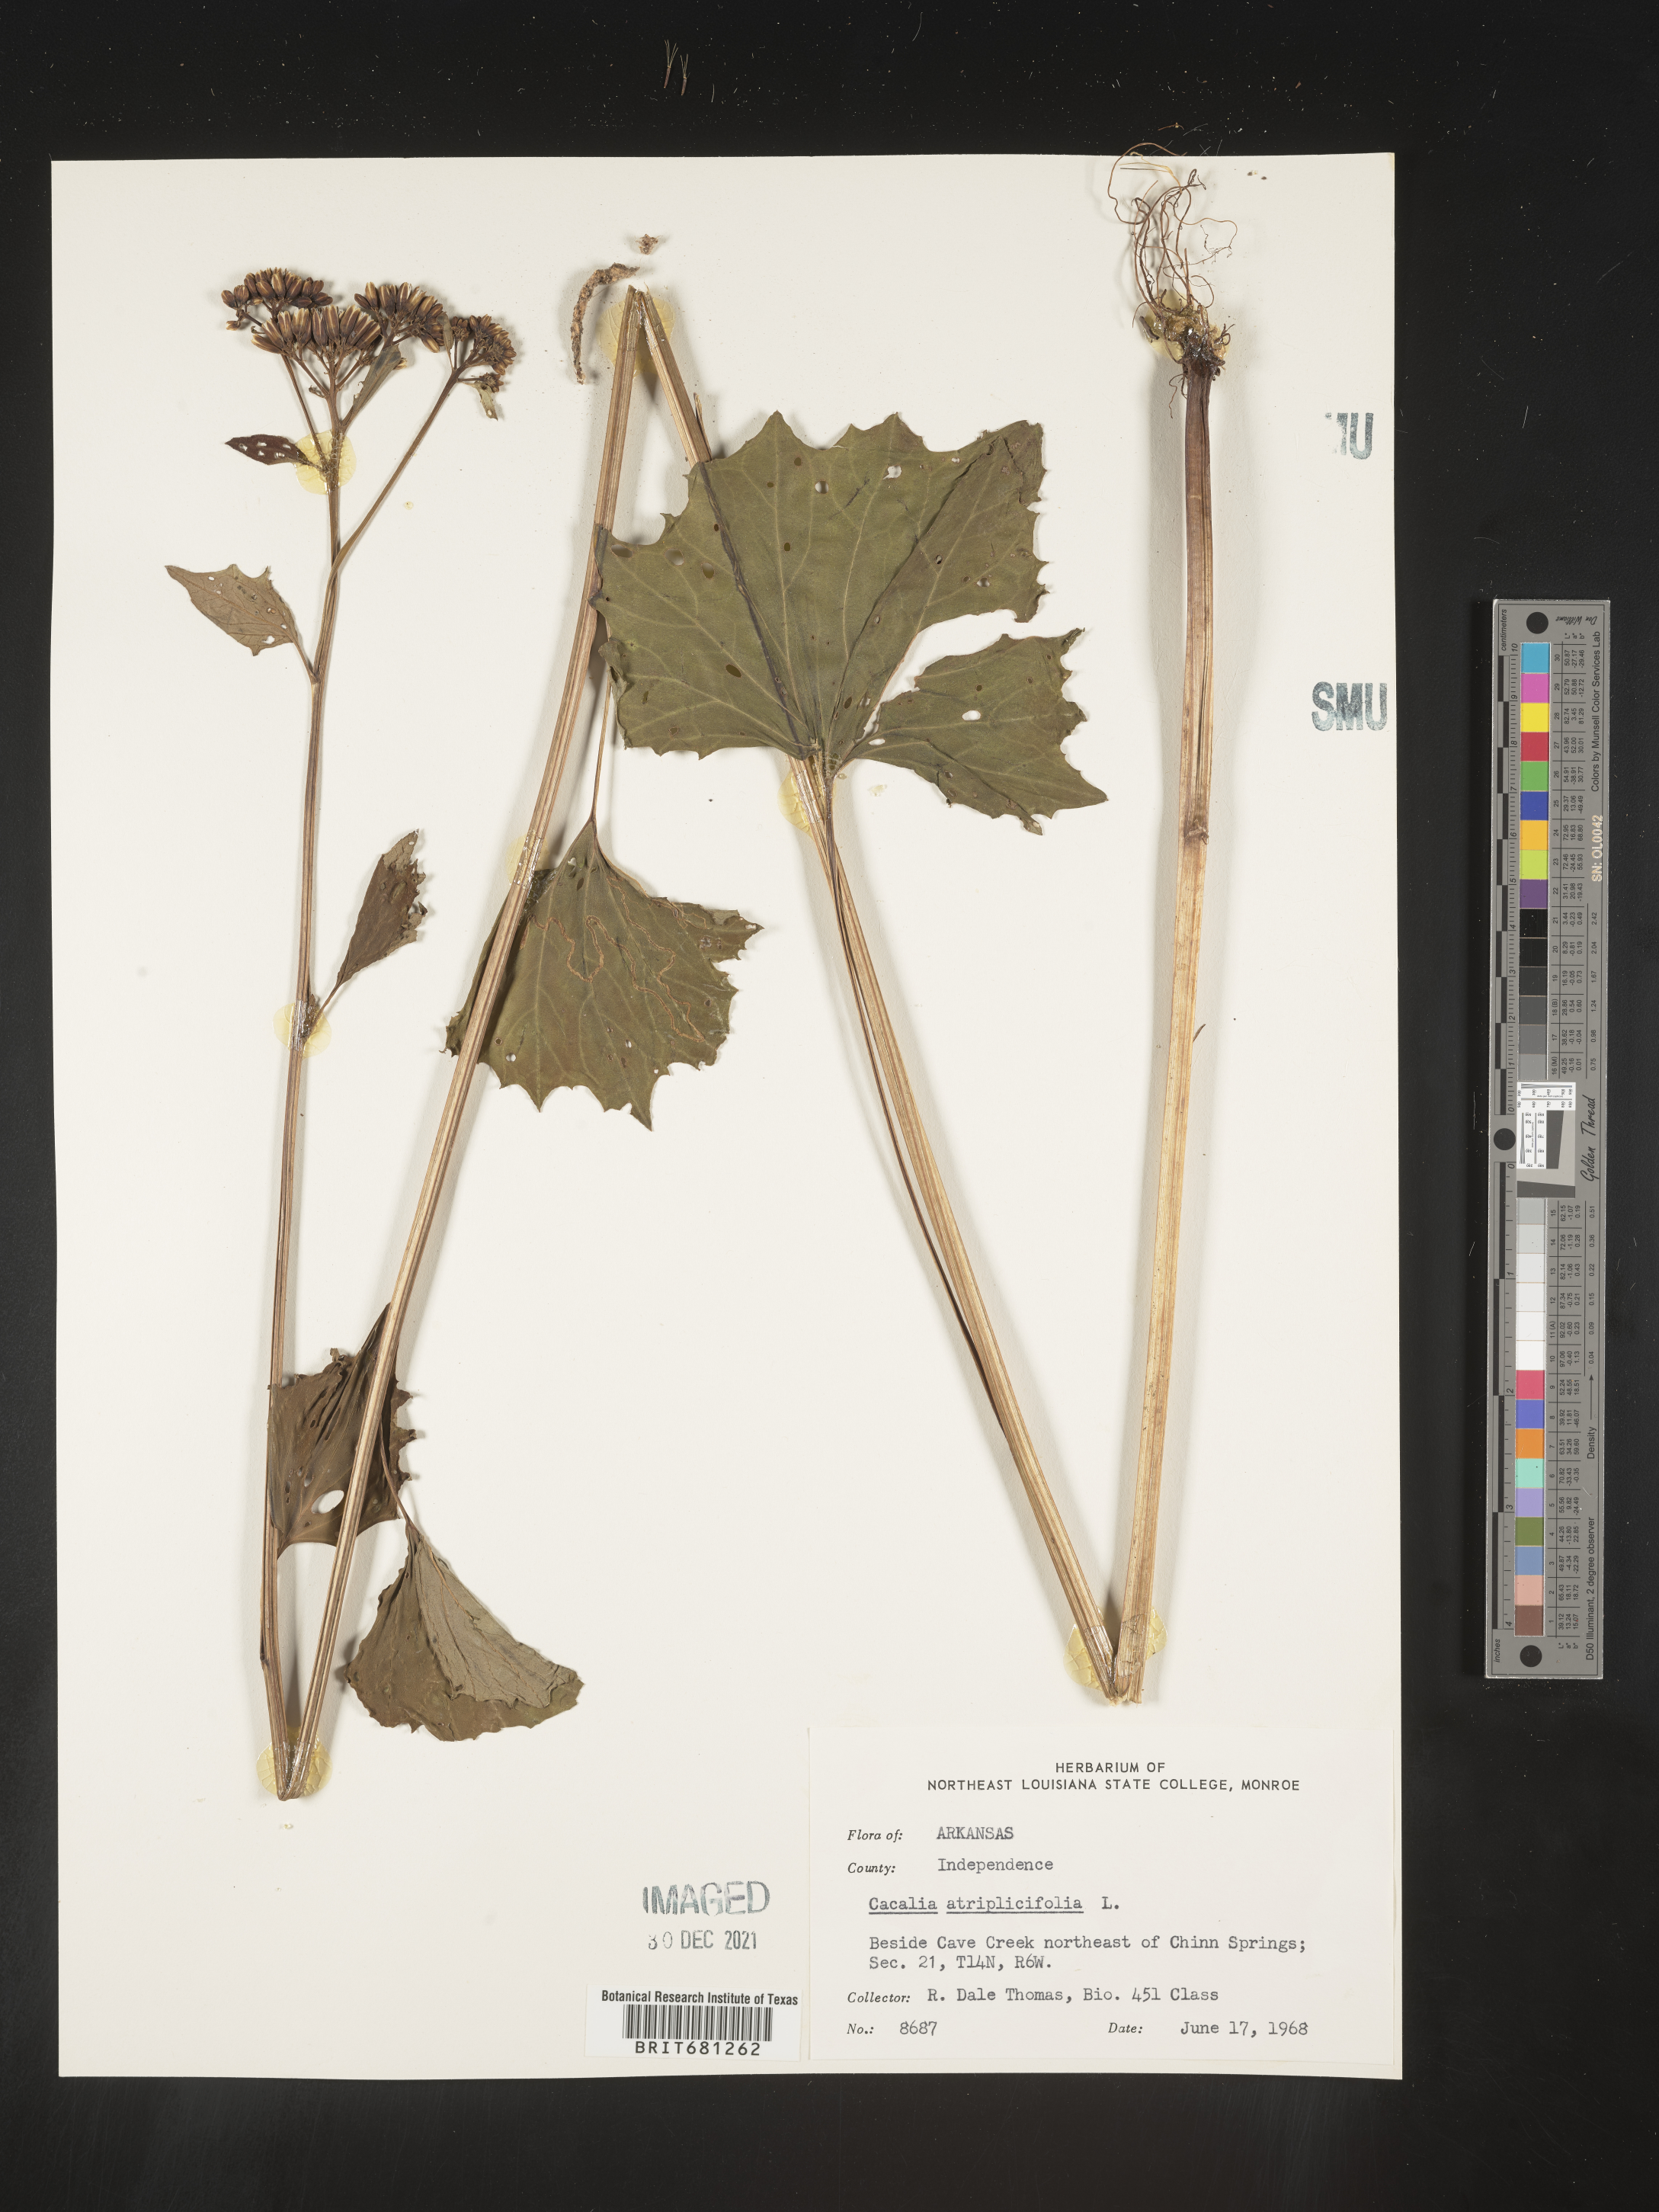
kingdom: Plantae
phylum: Tracheophyta
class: Magnoliopsida
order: Asterales
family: Asteraceae
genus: Arnoglossum
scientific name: Arnoglossum atriplicifolium
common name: Pale indian-plantain
